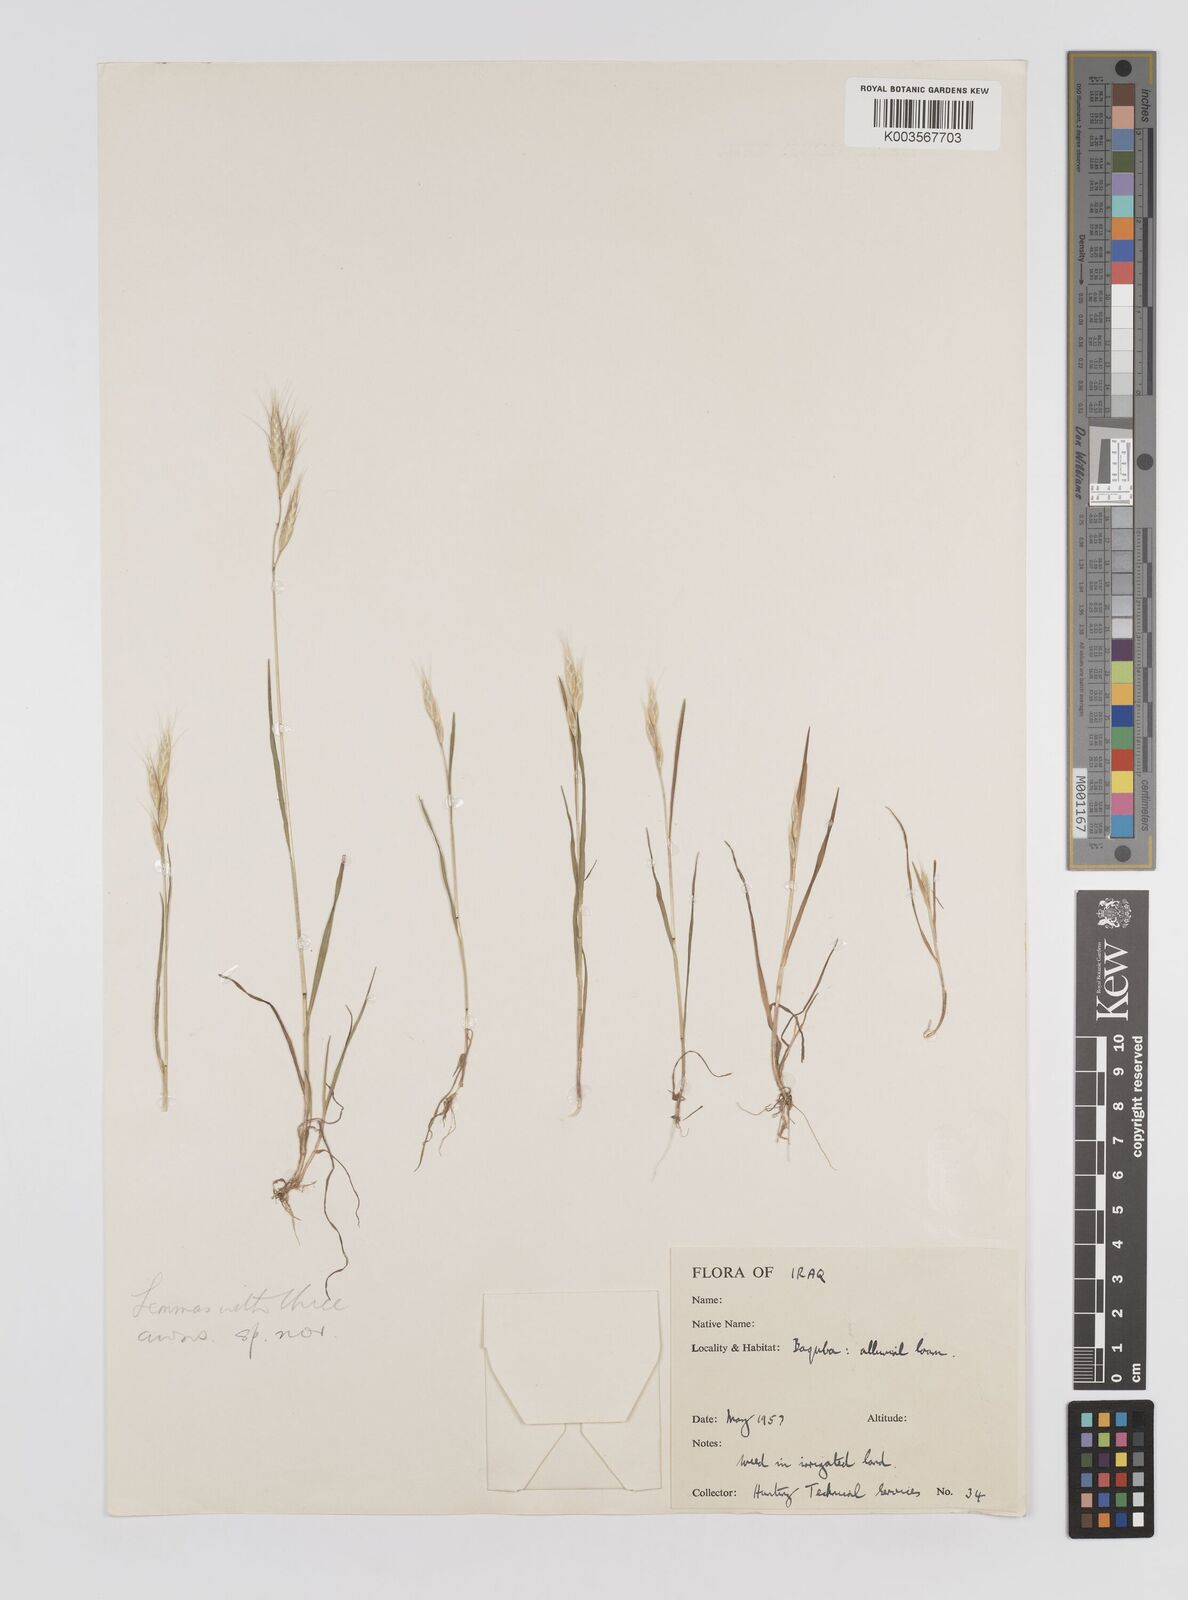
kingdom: Plantae
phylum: Tracheophyta
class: Liliopsida
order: Poales
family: Poaceae
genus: Bromus
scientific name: Bromus
